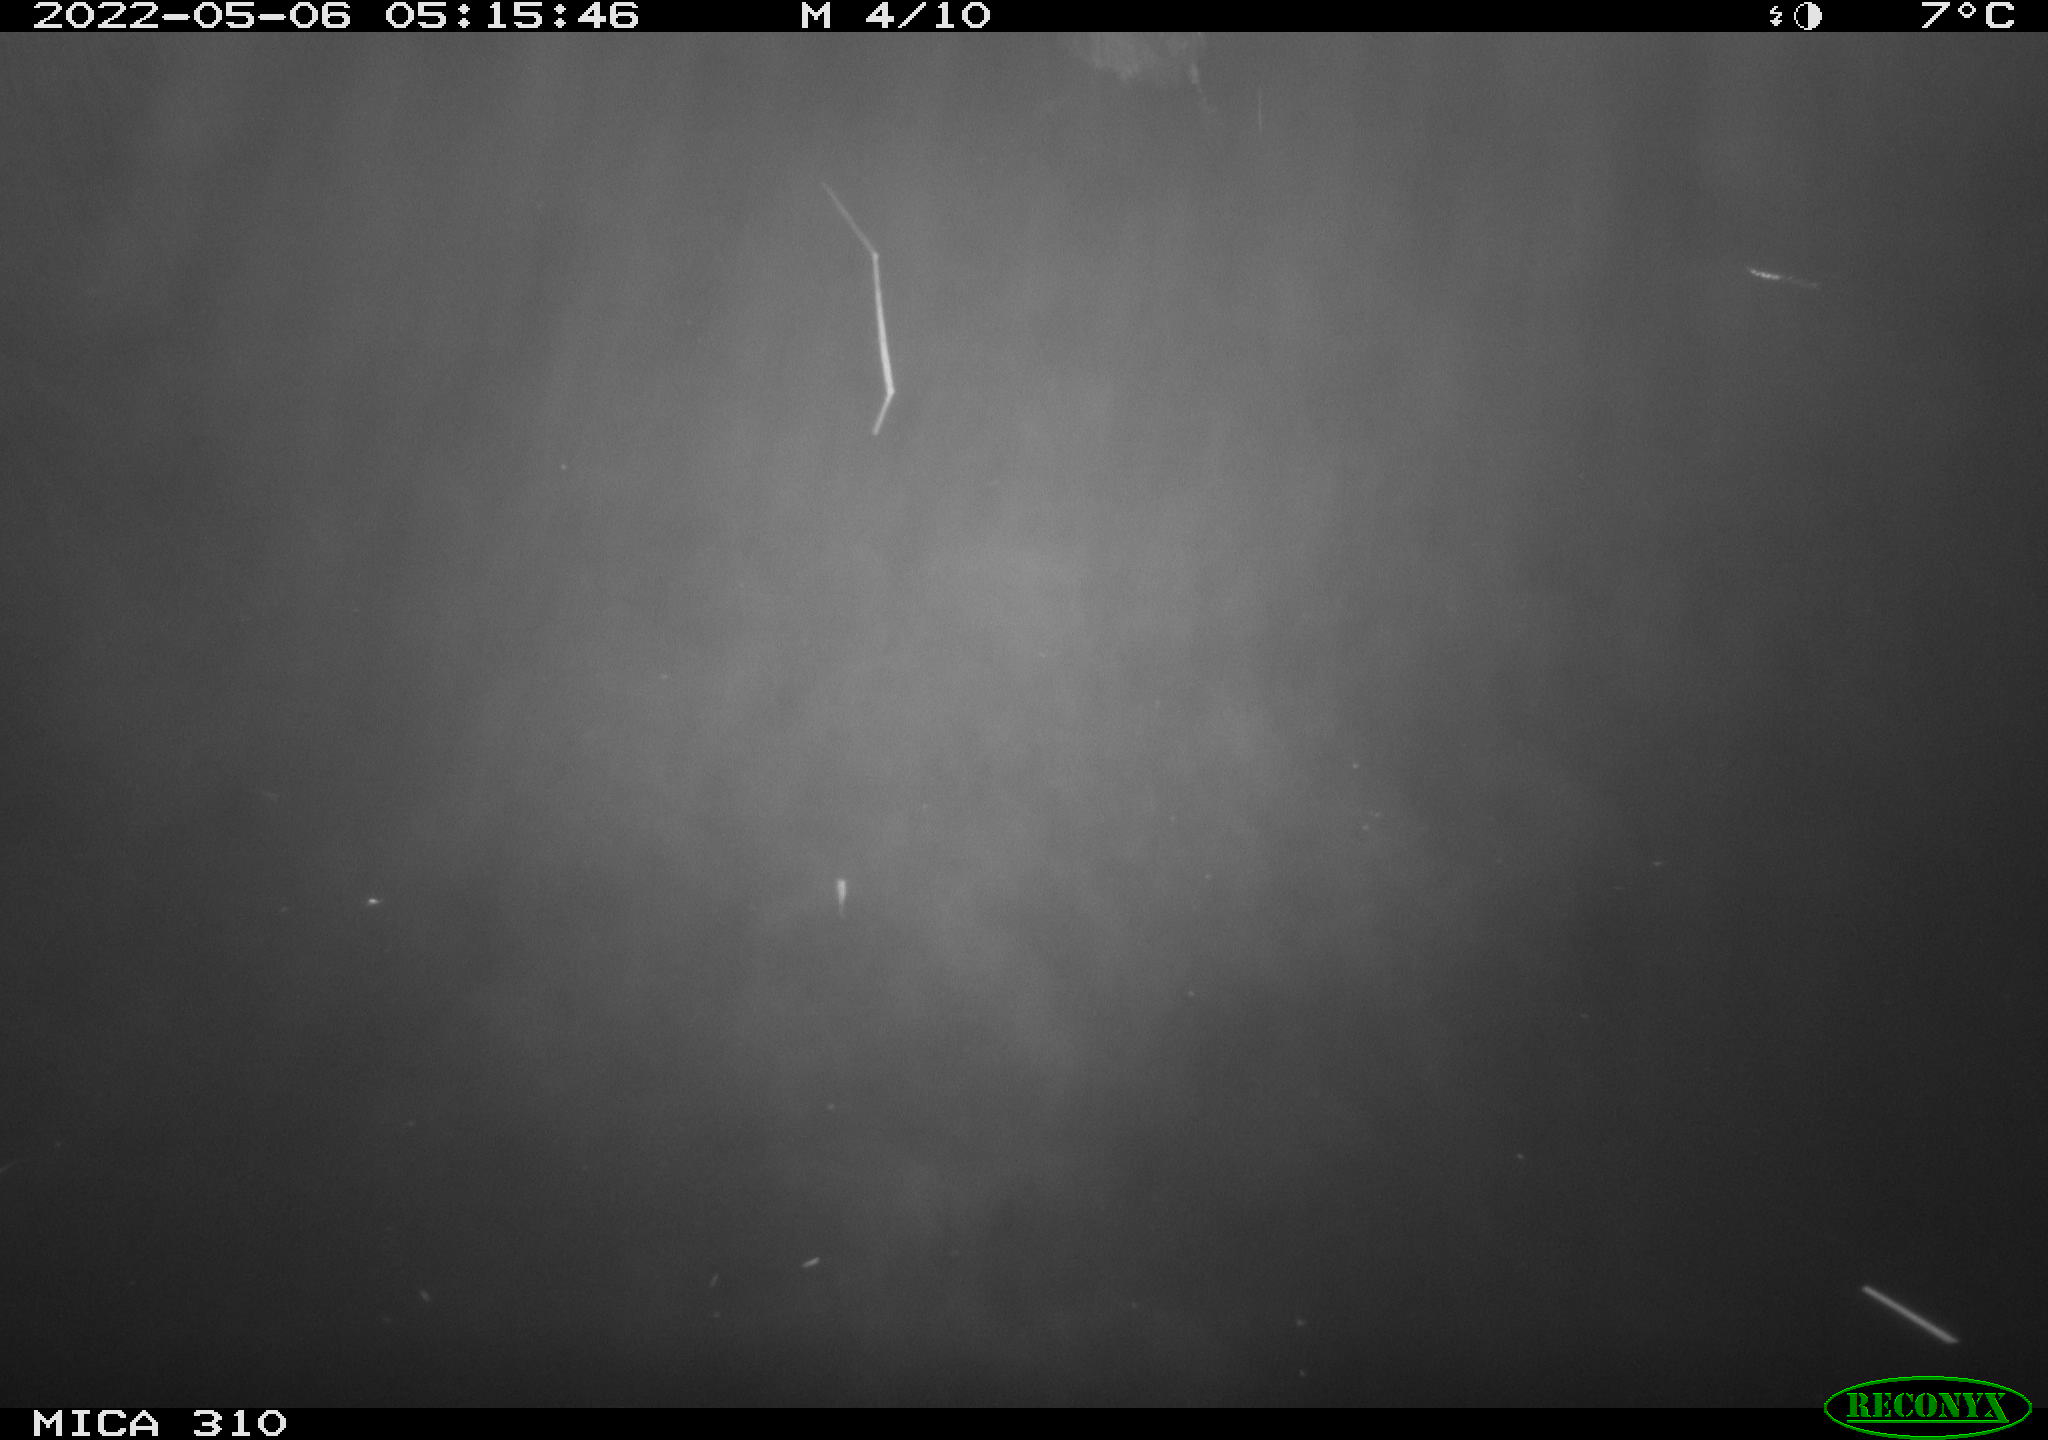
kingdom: Animalia
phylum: Chordata
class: Aves
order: Anseriformes
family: Anatidae
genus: Anas
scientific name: Anas platyrhynchos
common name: Mallard
